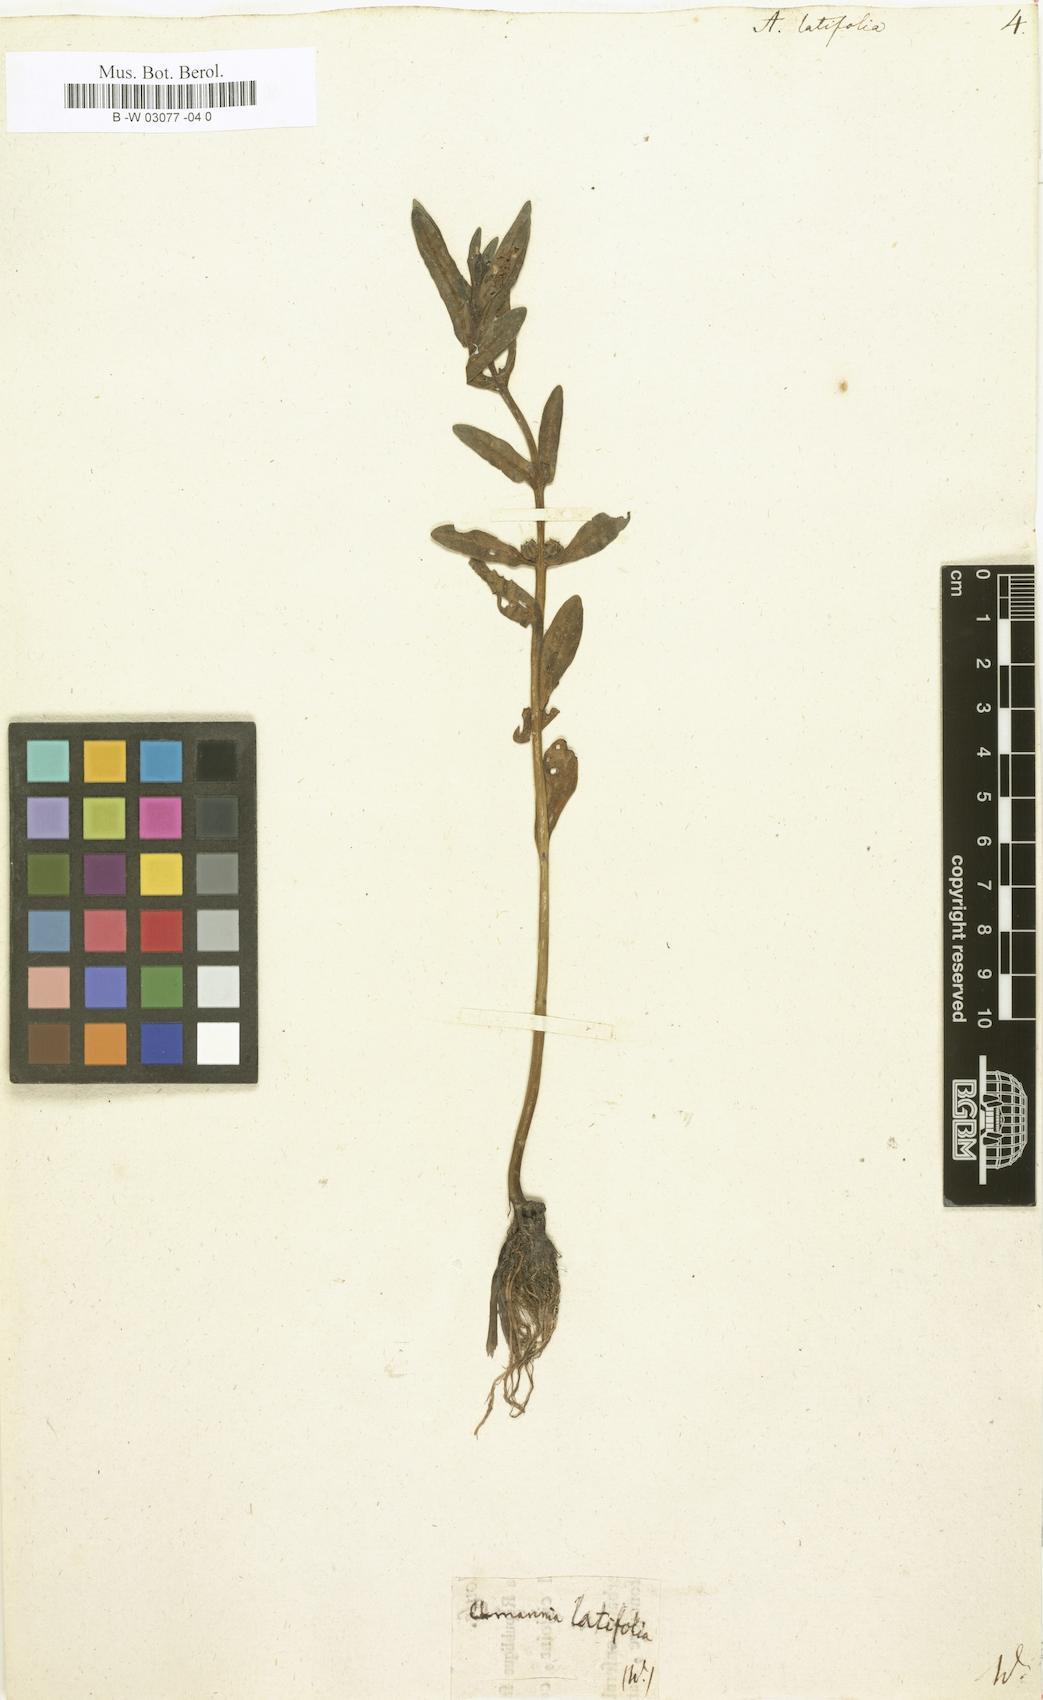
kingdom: Plantae
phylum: Tracheophyta
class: Magnoliopsida
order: Myrtales
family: Lythraceae
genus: Ammannia
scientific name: Ammannia latifolia
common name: Toothcup
